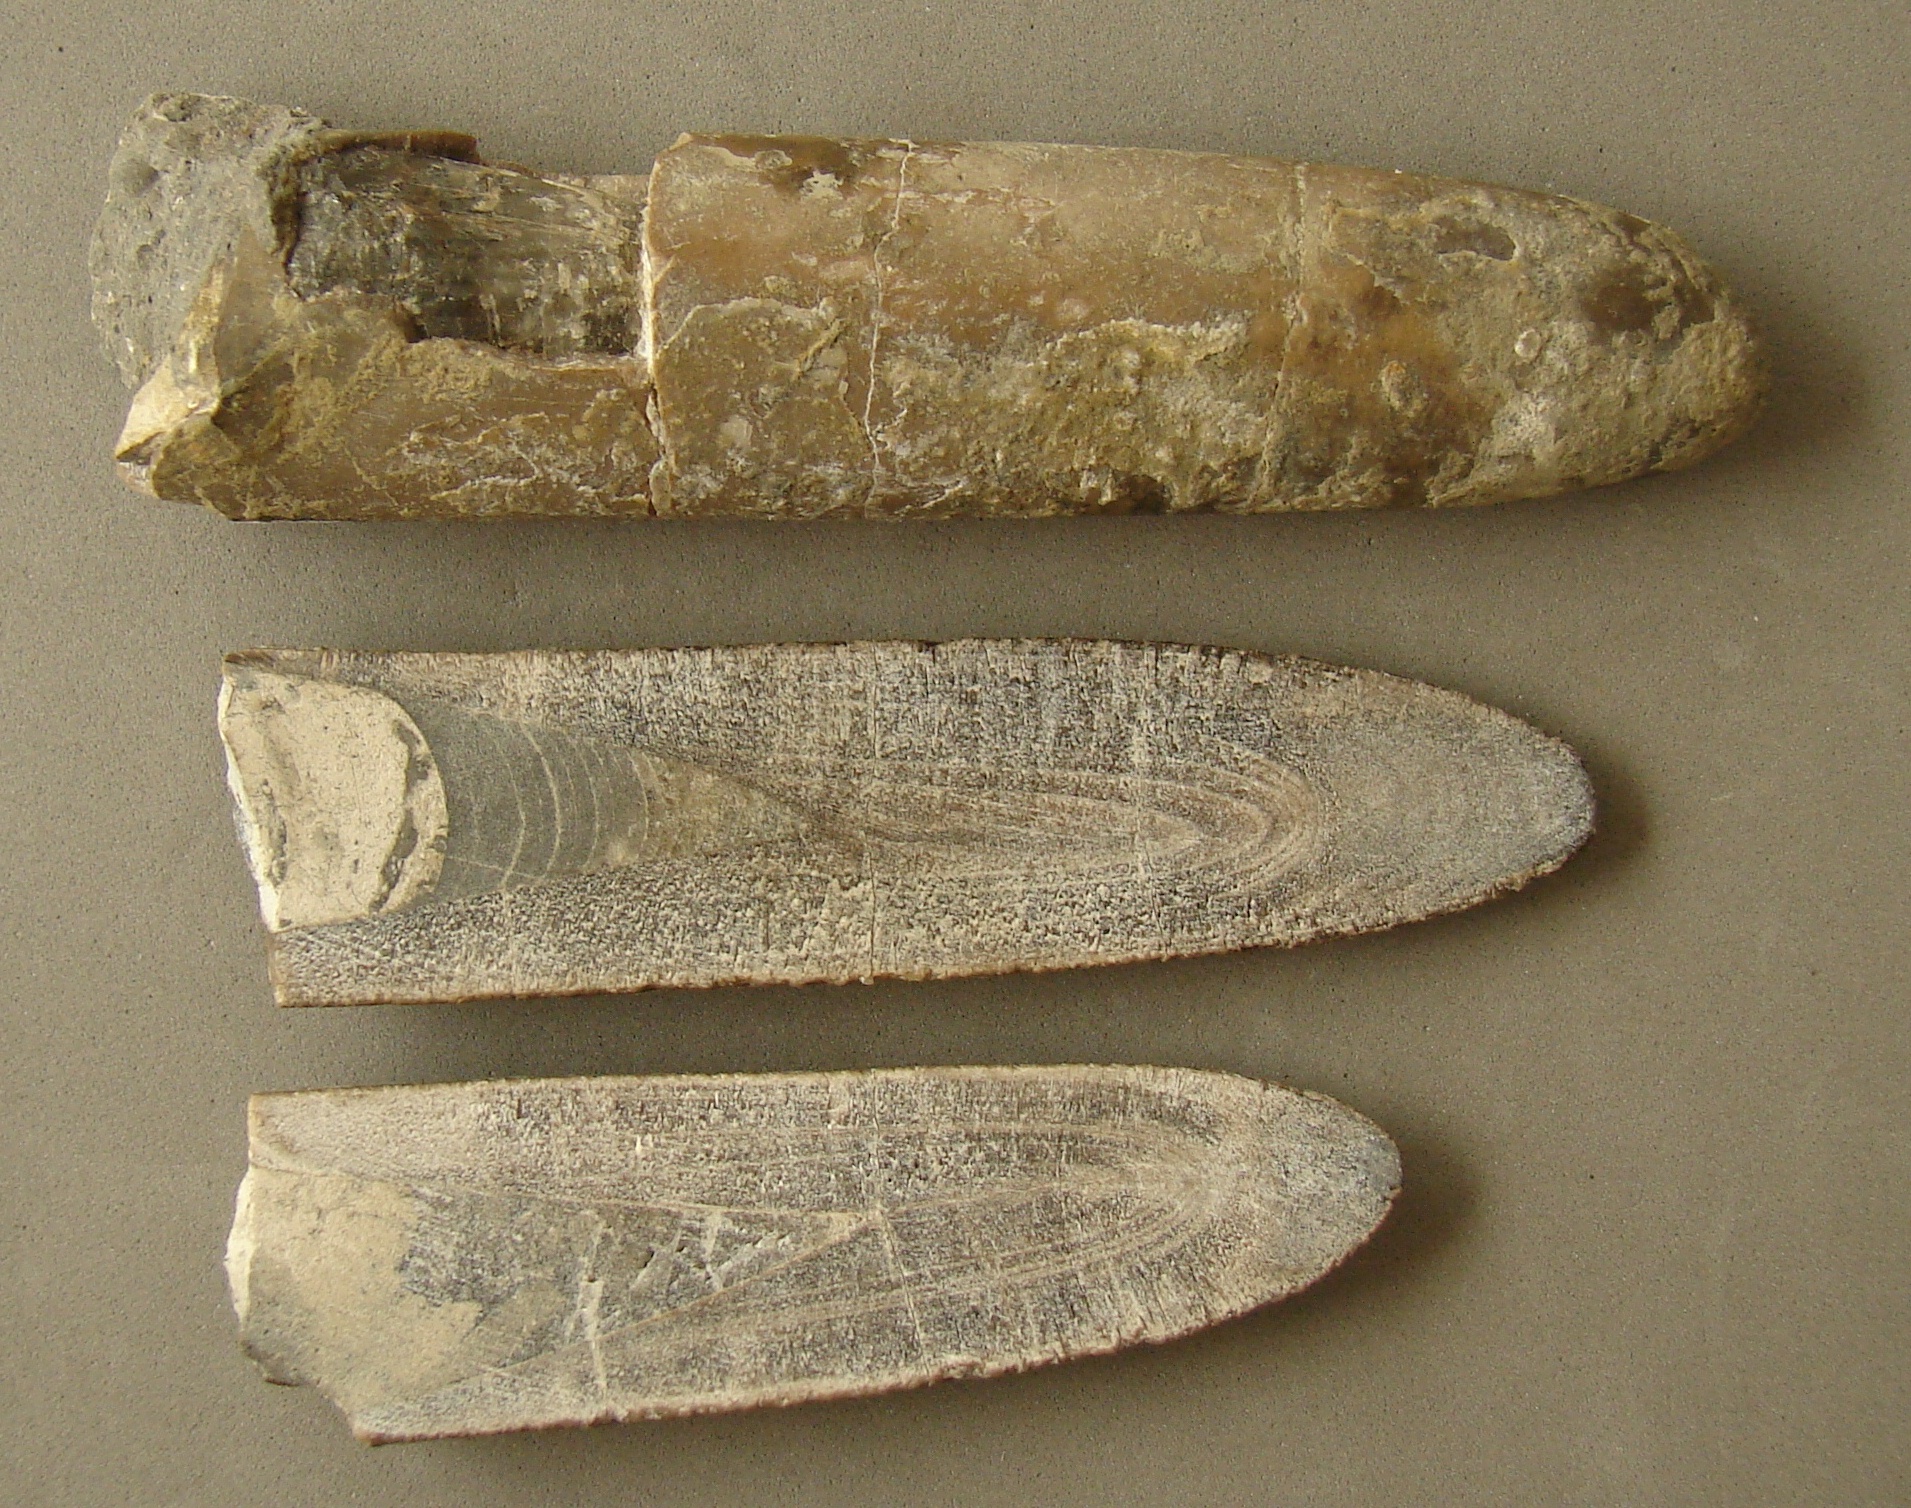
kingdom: Animalia
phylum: Mollusca
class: Cephalopoda
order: Belemnitida
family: Megateuthididae
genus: Dactyloteuthis
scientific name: Dactyloteuthis irregularis
